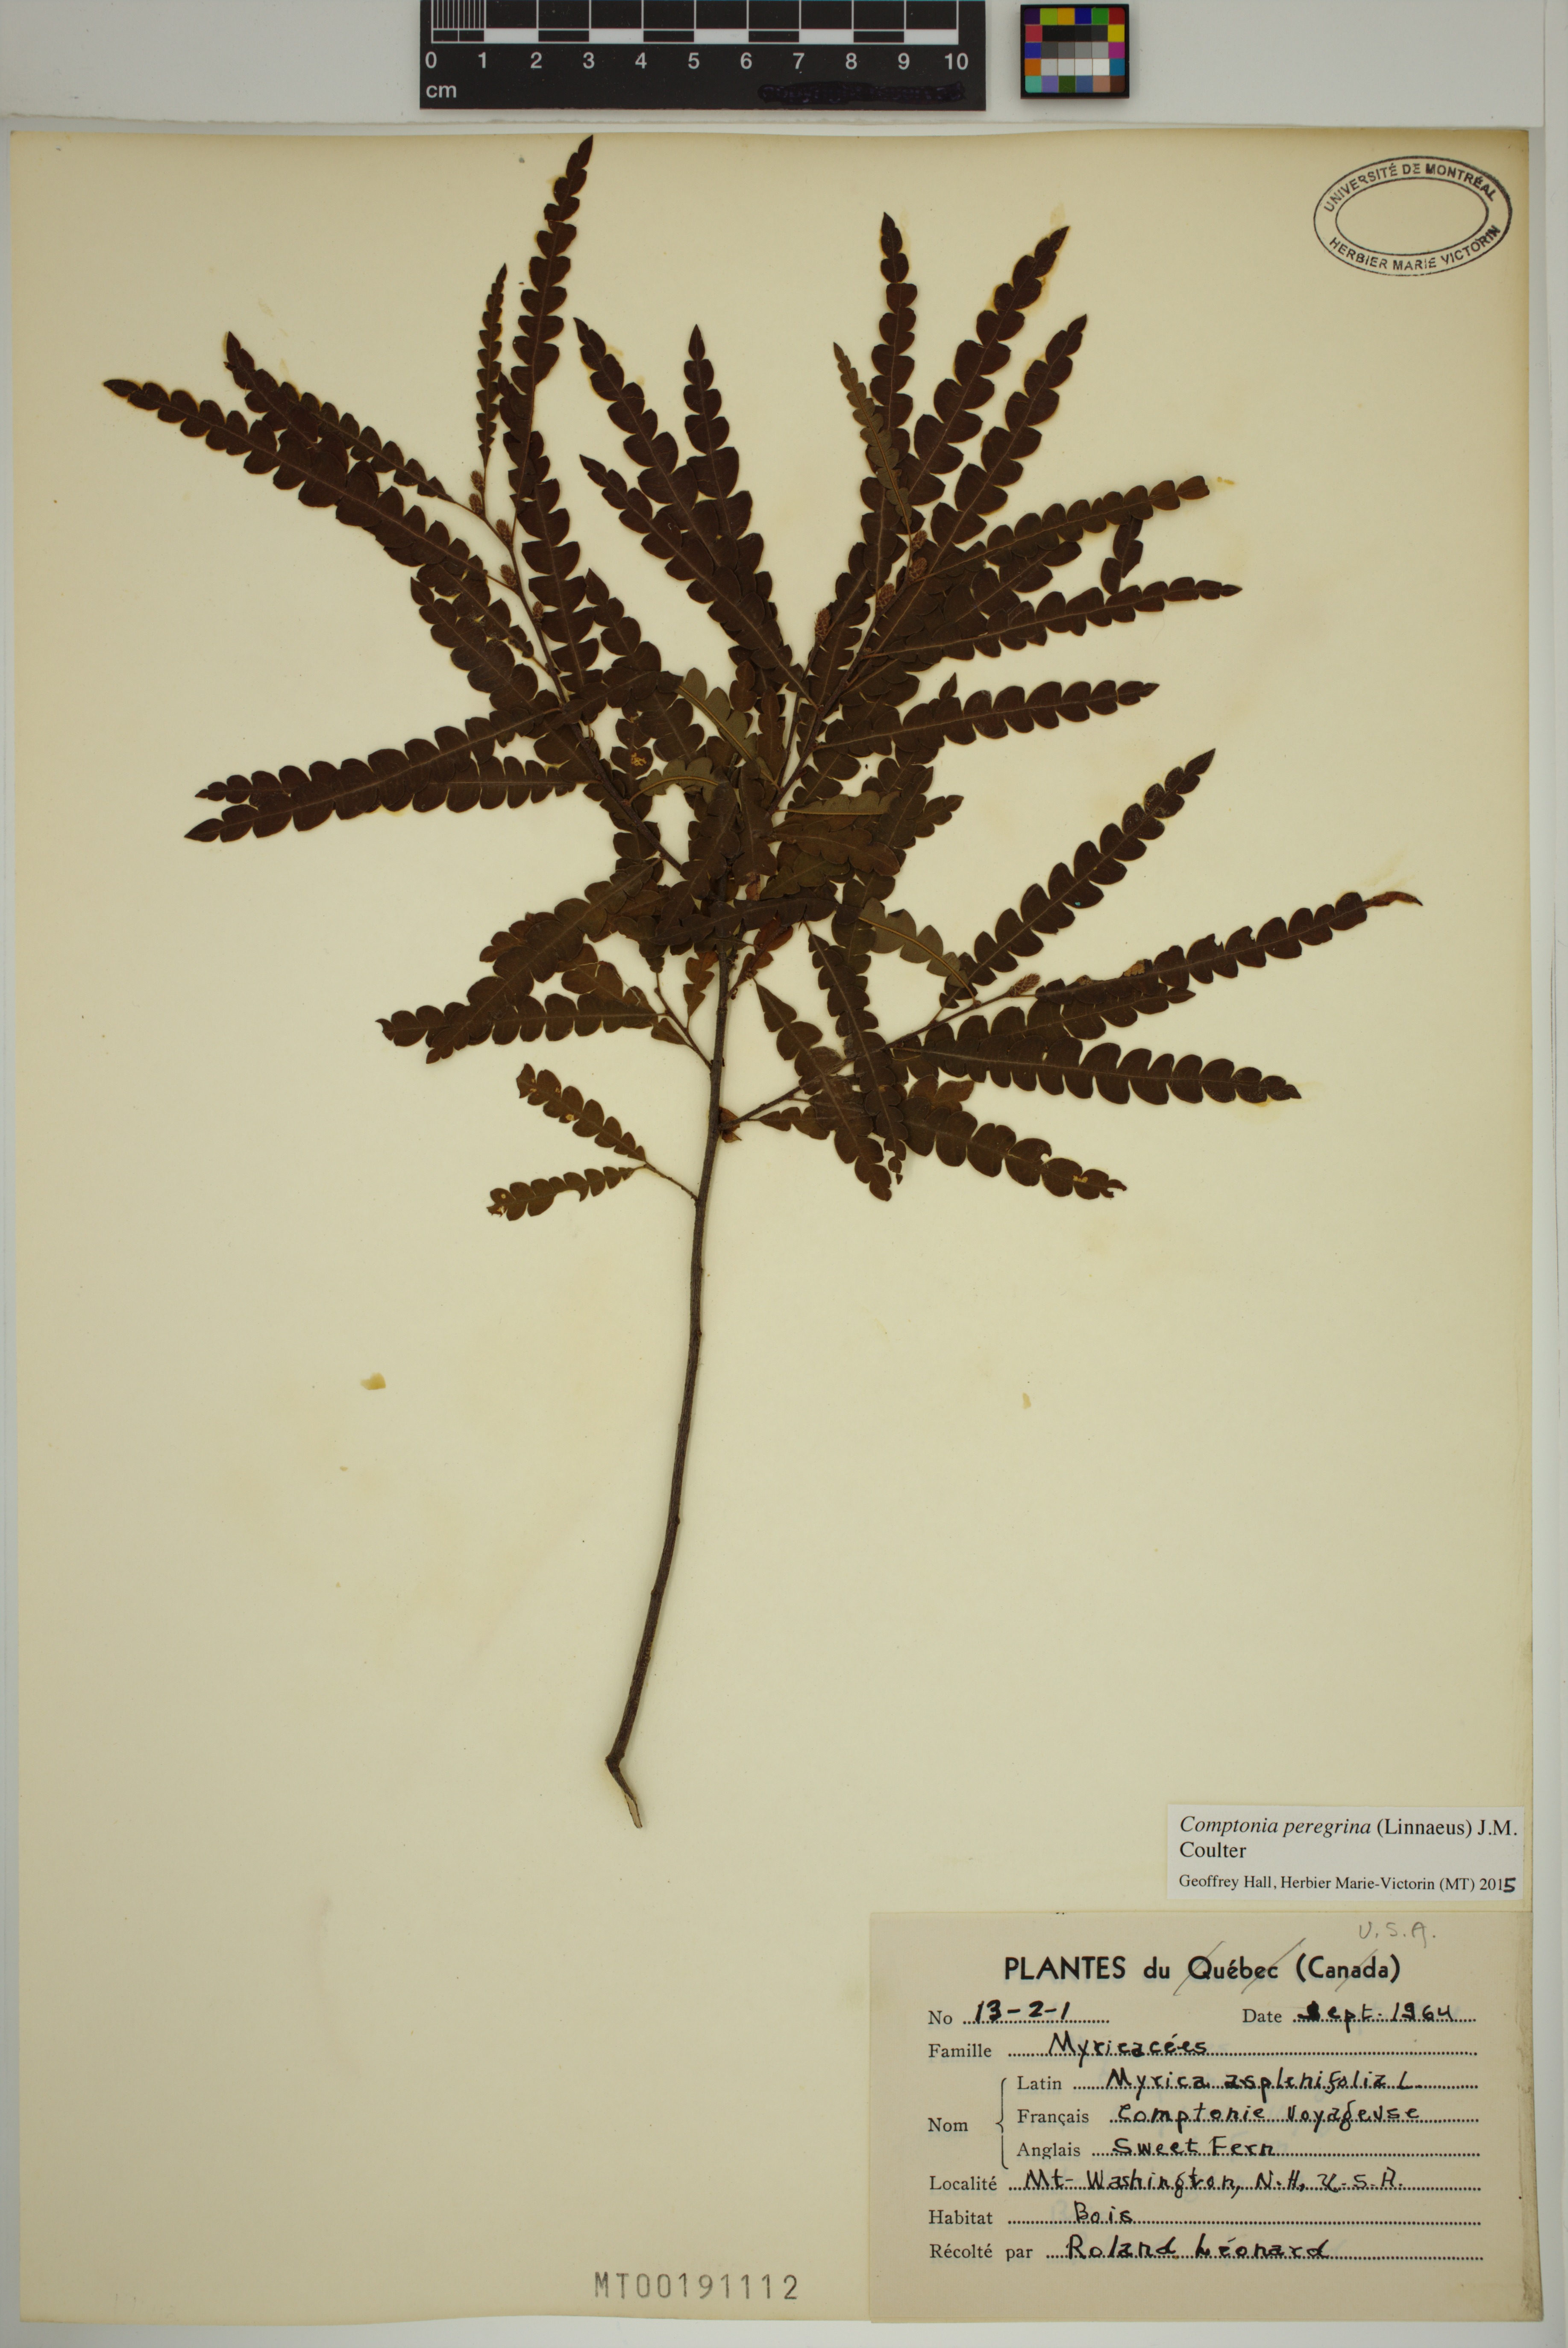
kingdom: Plantae
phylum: Tracheophyta
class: Magnoliopsida
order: Fagales
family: Myricaceae
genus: Comptonia
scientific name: Comptonia peregrina
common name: Sweet-fern
